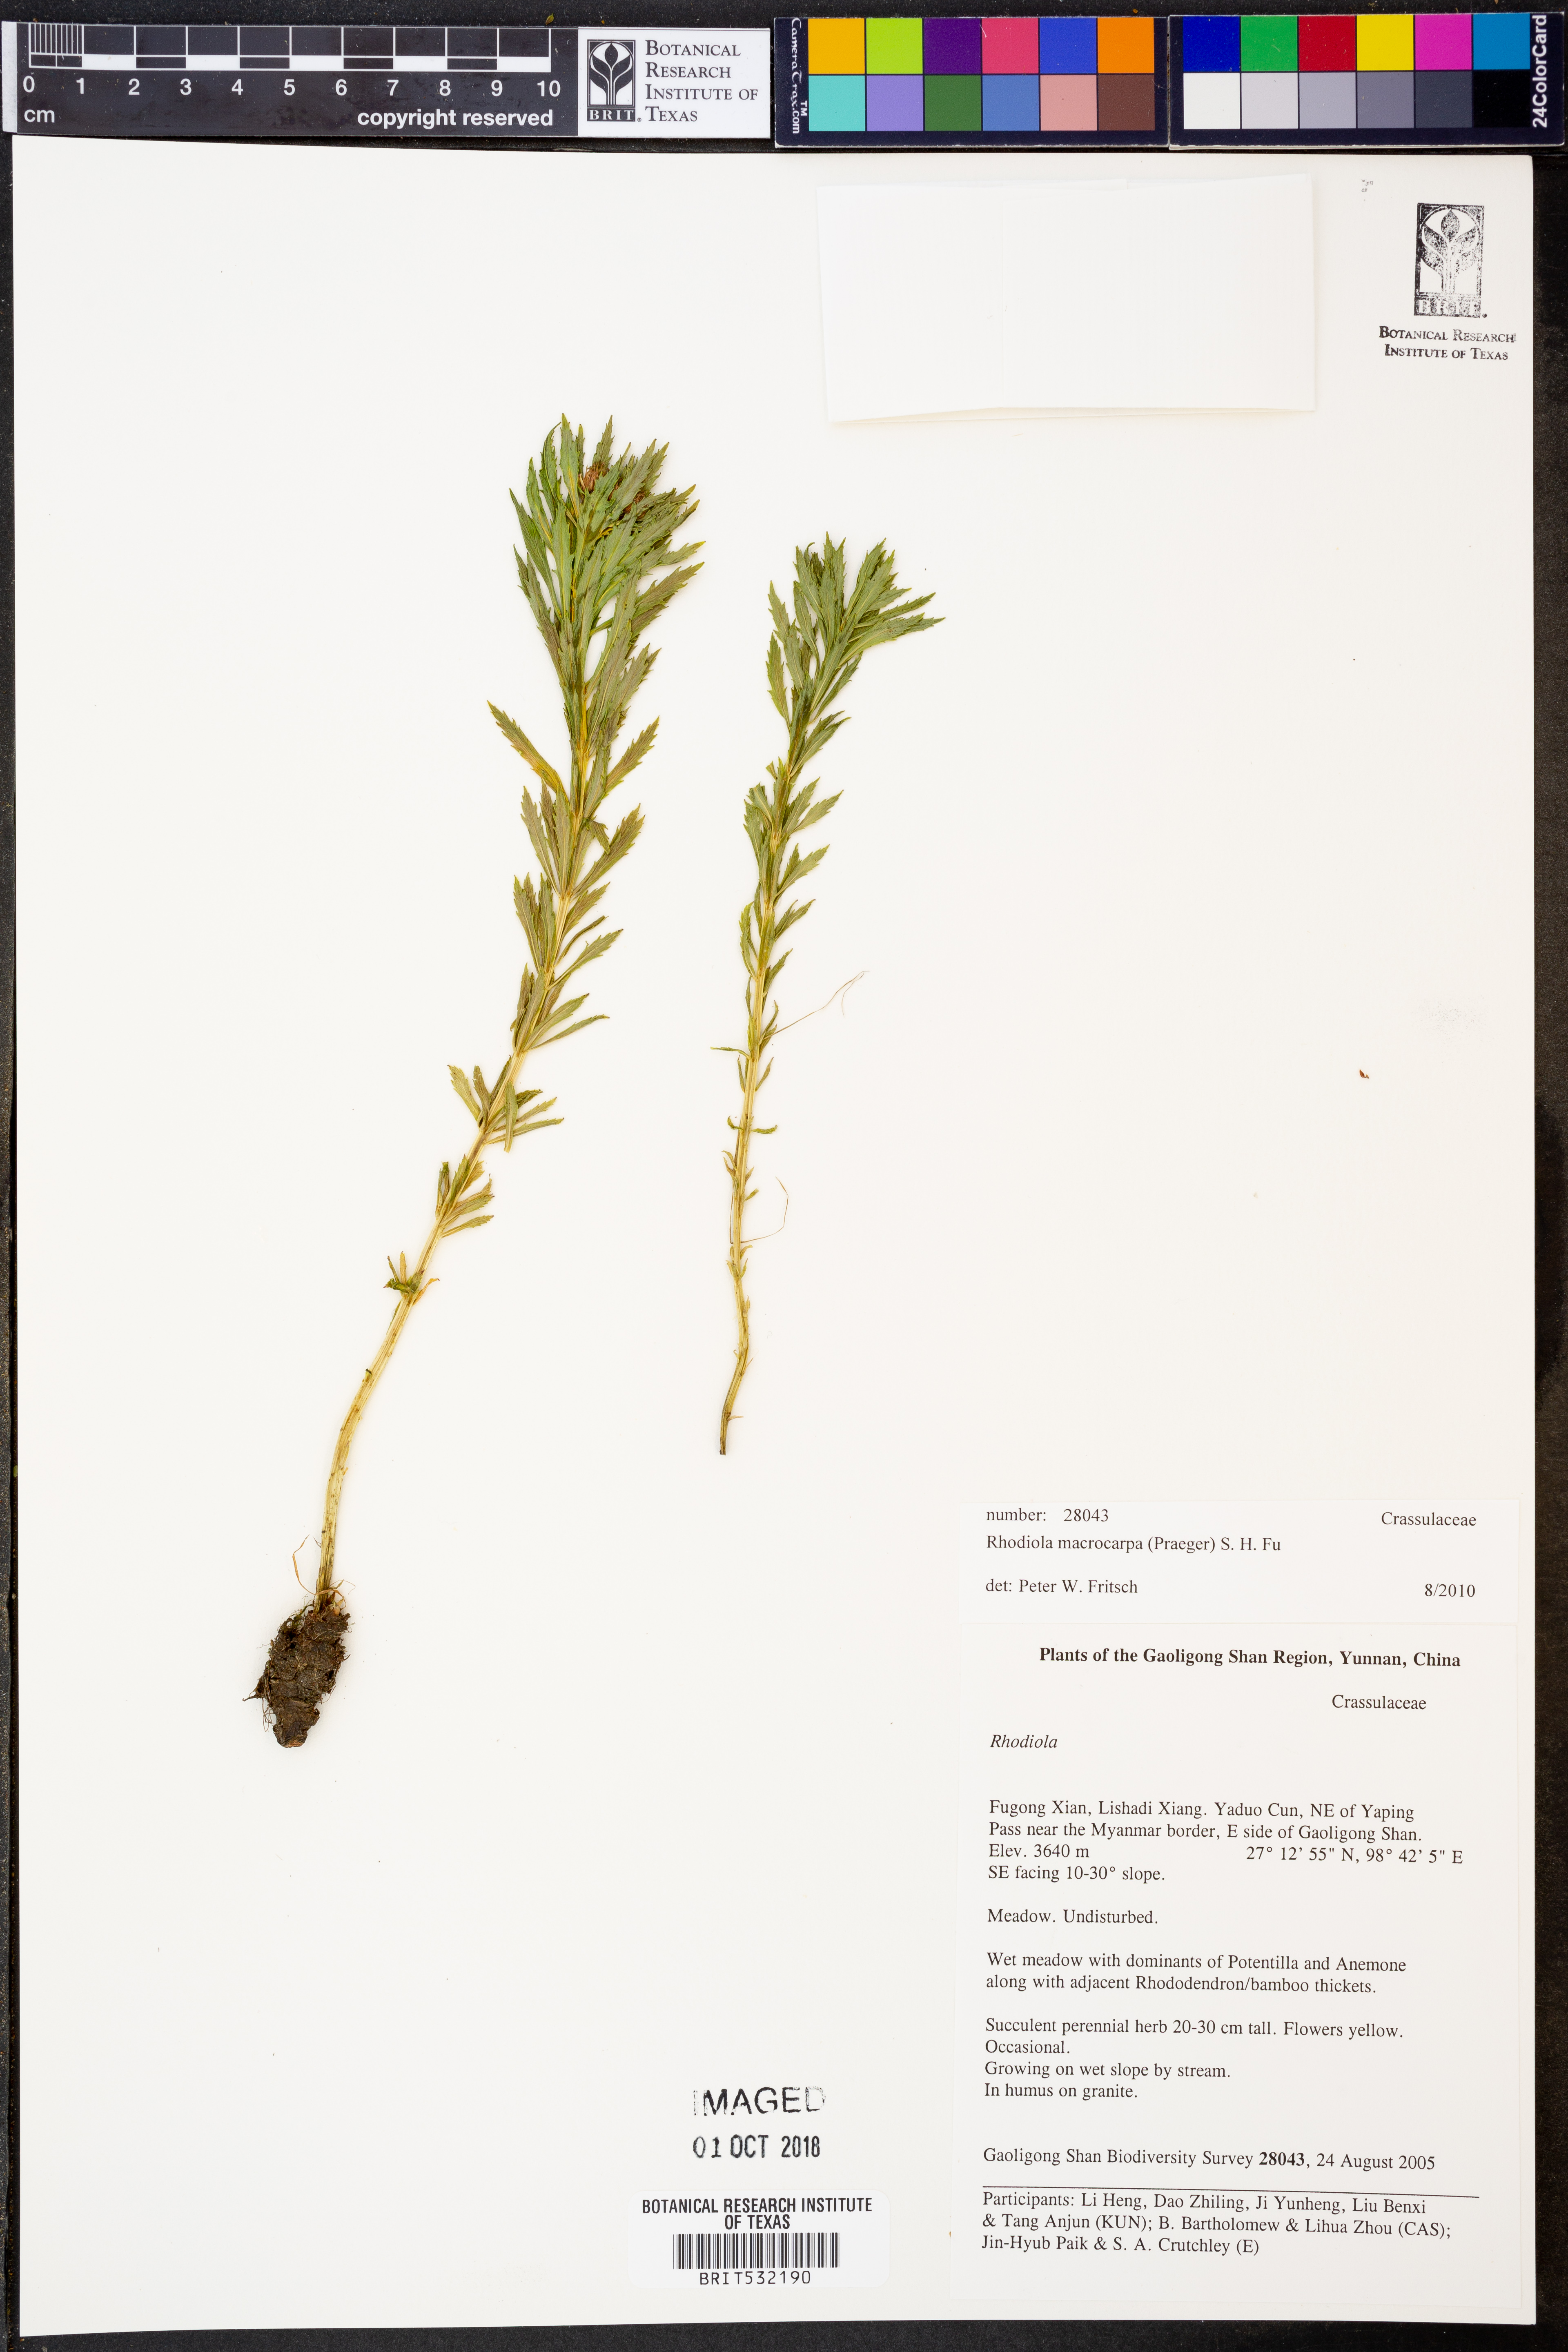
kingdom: Plantae
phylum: Tracheophyta
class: Magnoliopsida
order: Saxifragales
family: Crassulaceae
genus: Rhodiola
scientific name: Rhodiola macrocarpa
